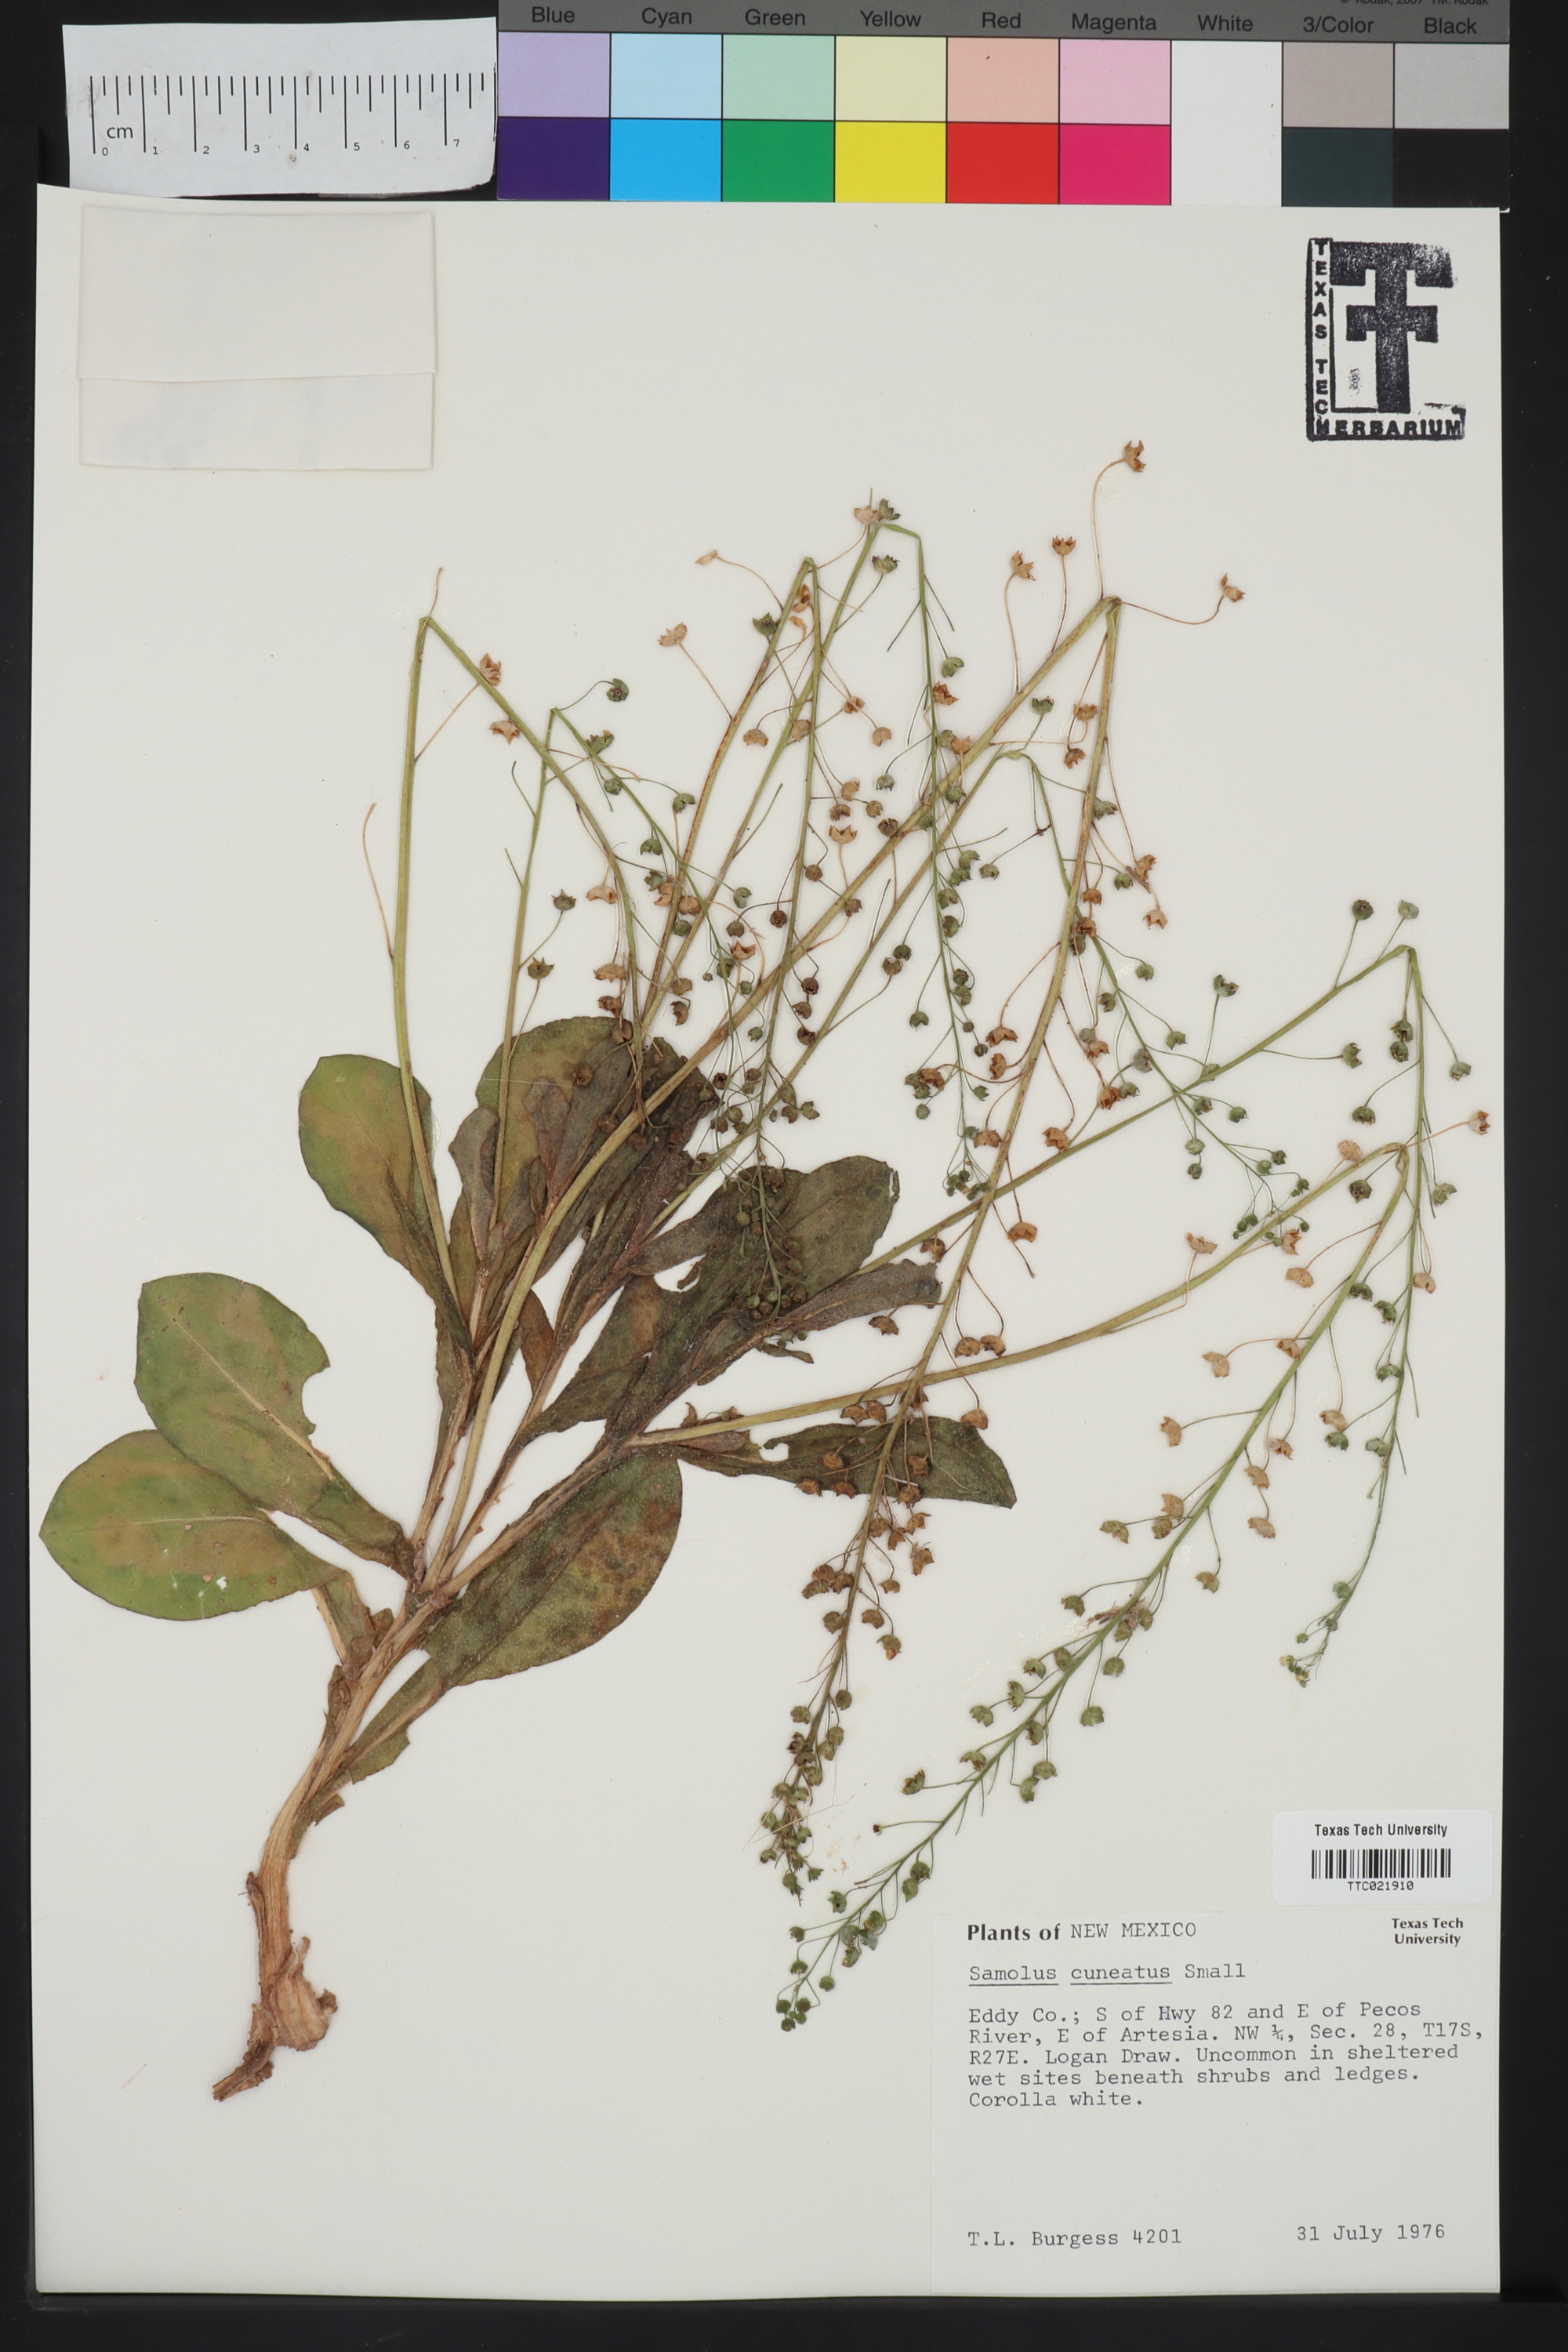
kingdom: Plantae
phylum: Tracheophyta
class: Magnoliopsida
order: Ericales
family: Primulaceae
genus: Samolus
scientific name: Samolus ebracteatus
